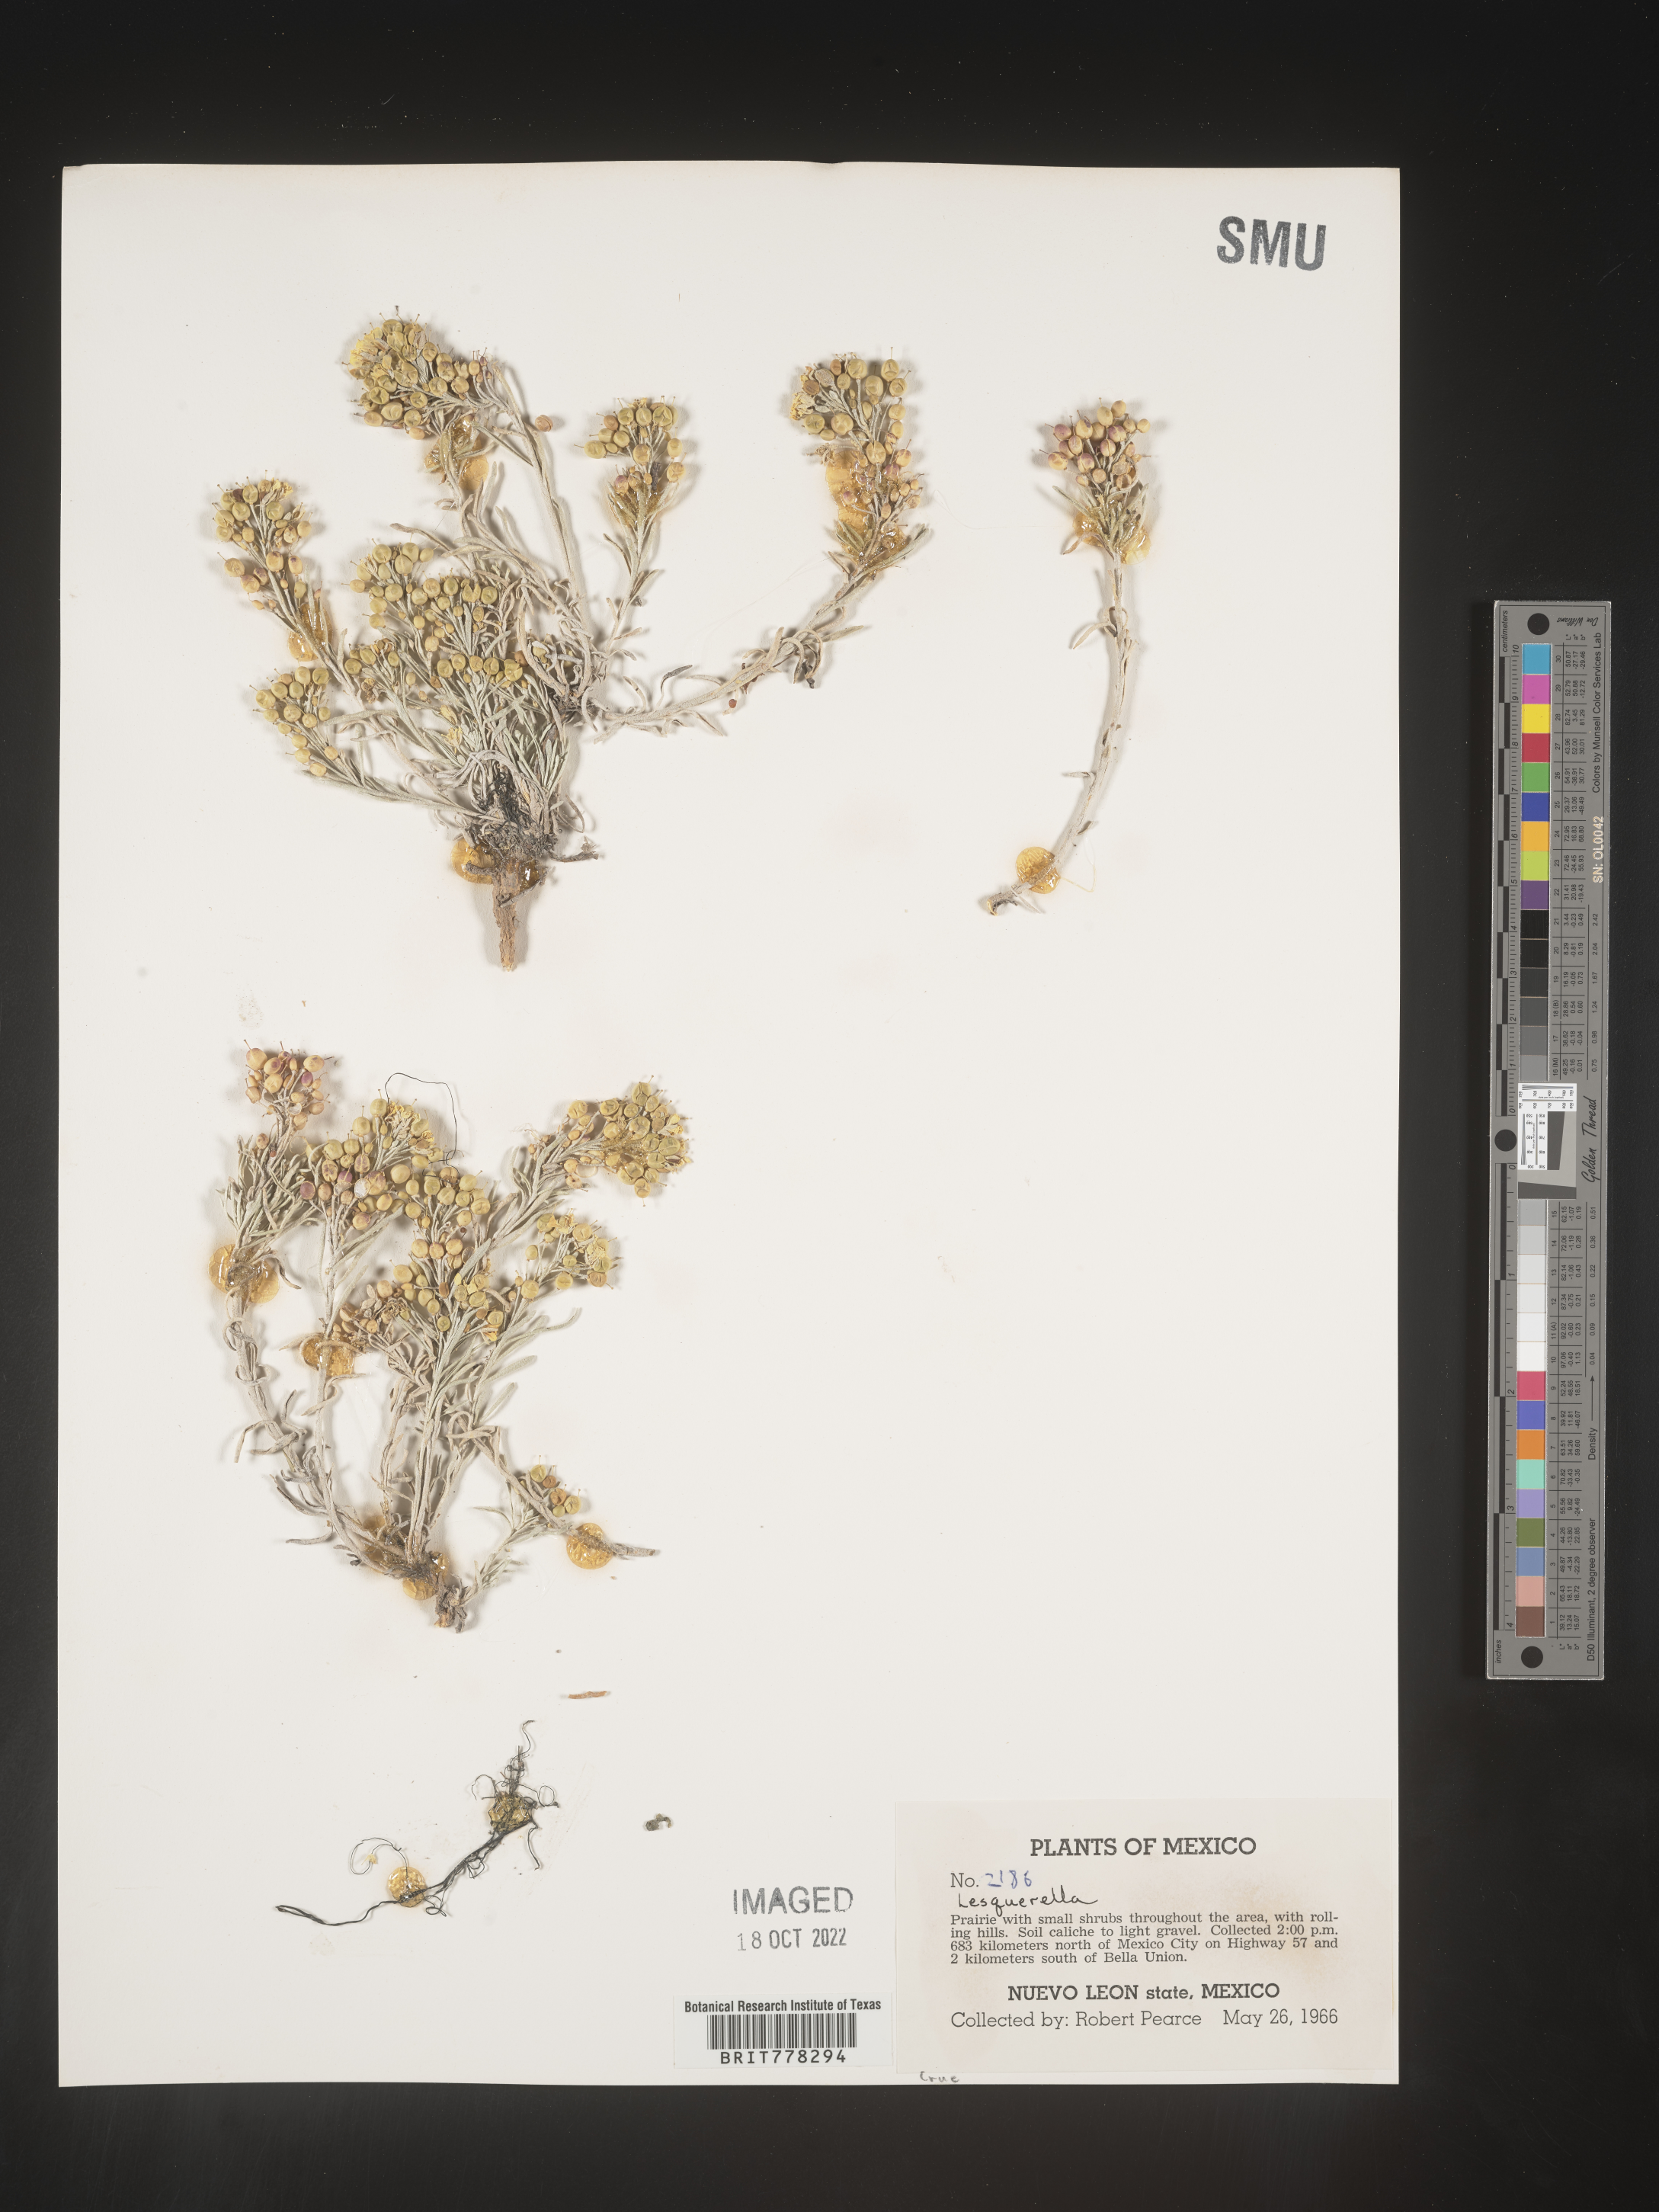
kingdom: Chromista
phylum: Cercozoa
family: Psammonobiotidae
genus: Lesquerella
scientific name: Lesquerella
